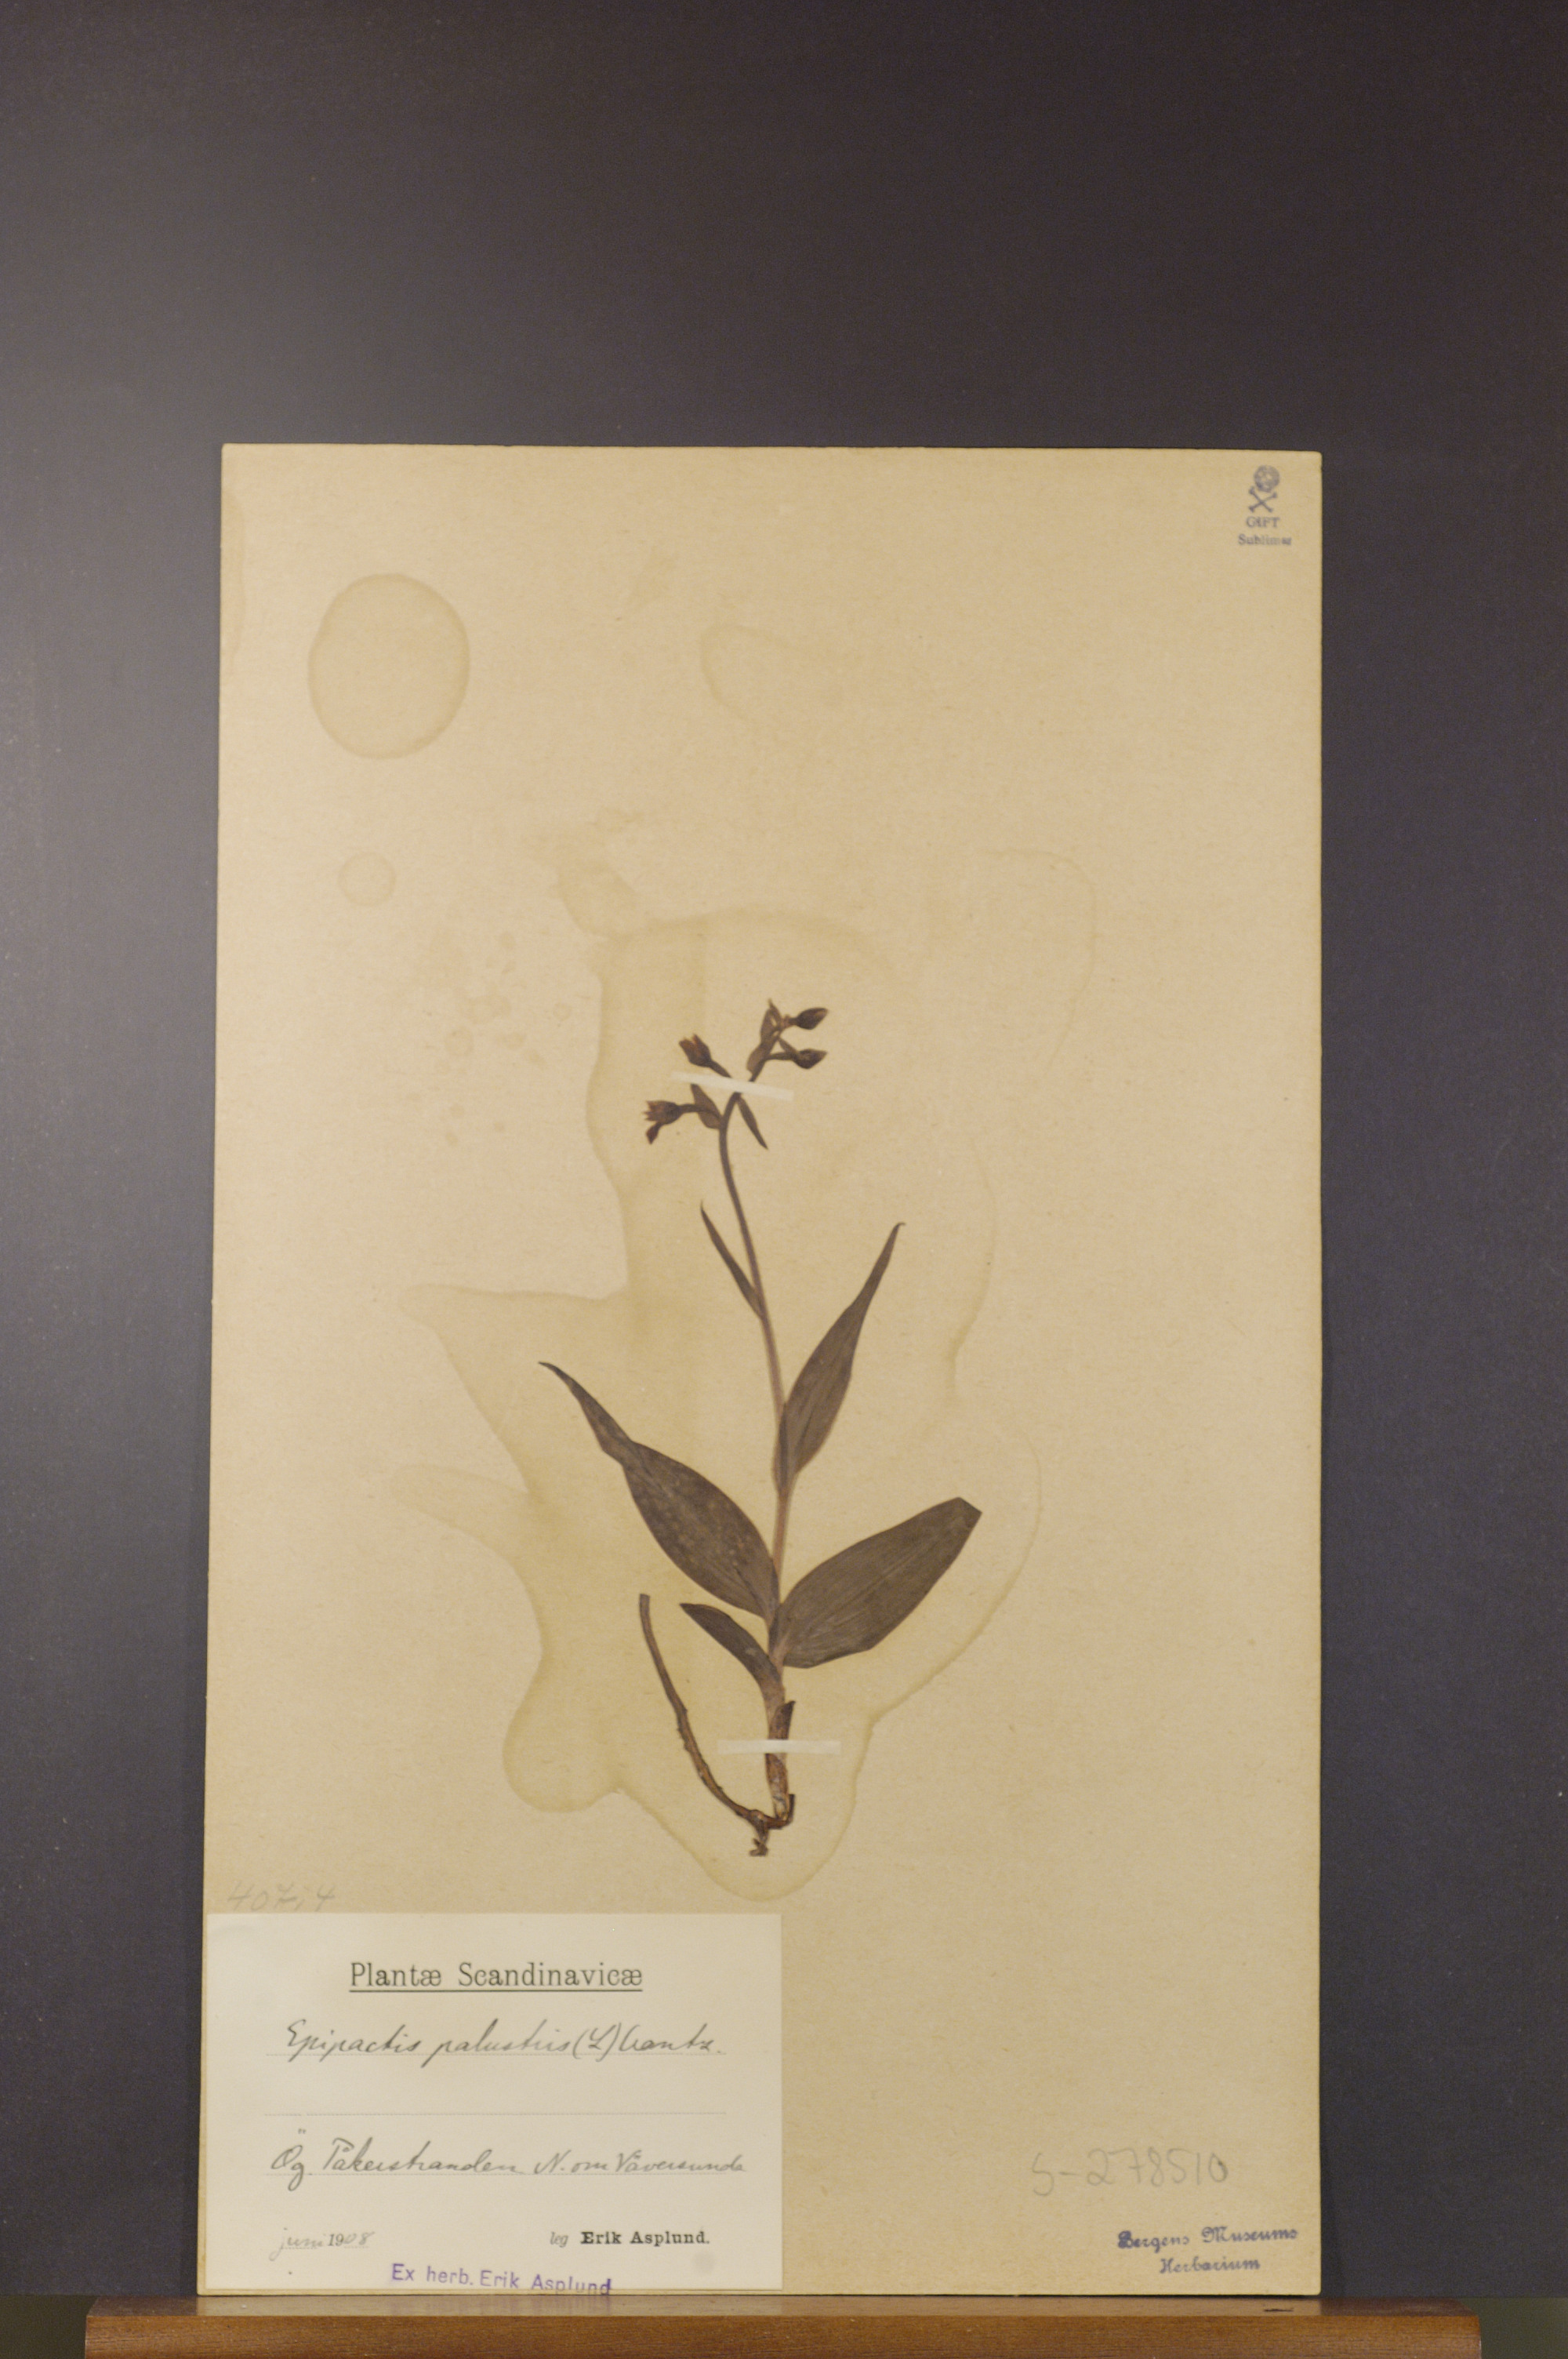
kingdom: Plantae
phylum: Tracheophyta
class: Liliopsida
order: Asparagales
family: Orchidaceae
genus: Epipactis
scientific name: Epipactis palustris
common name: Marsh helleborine
